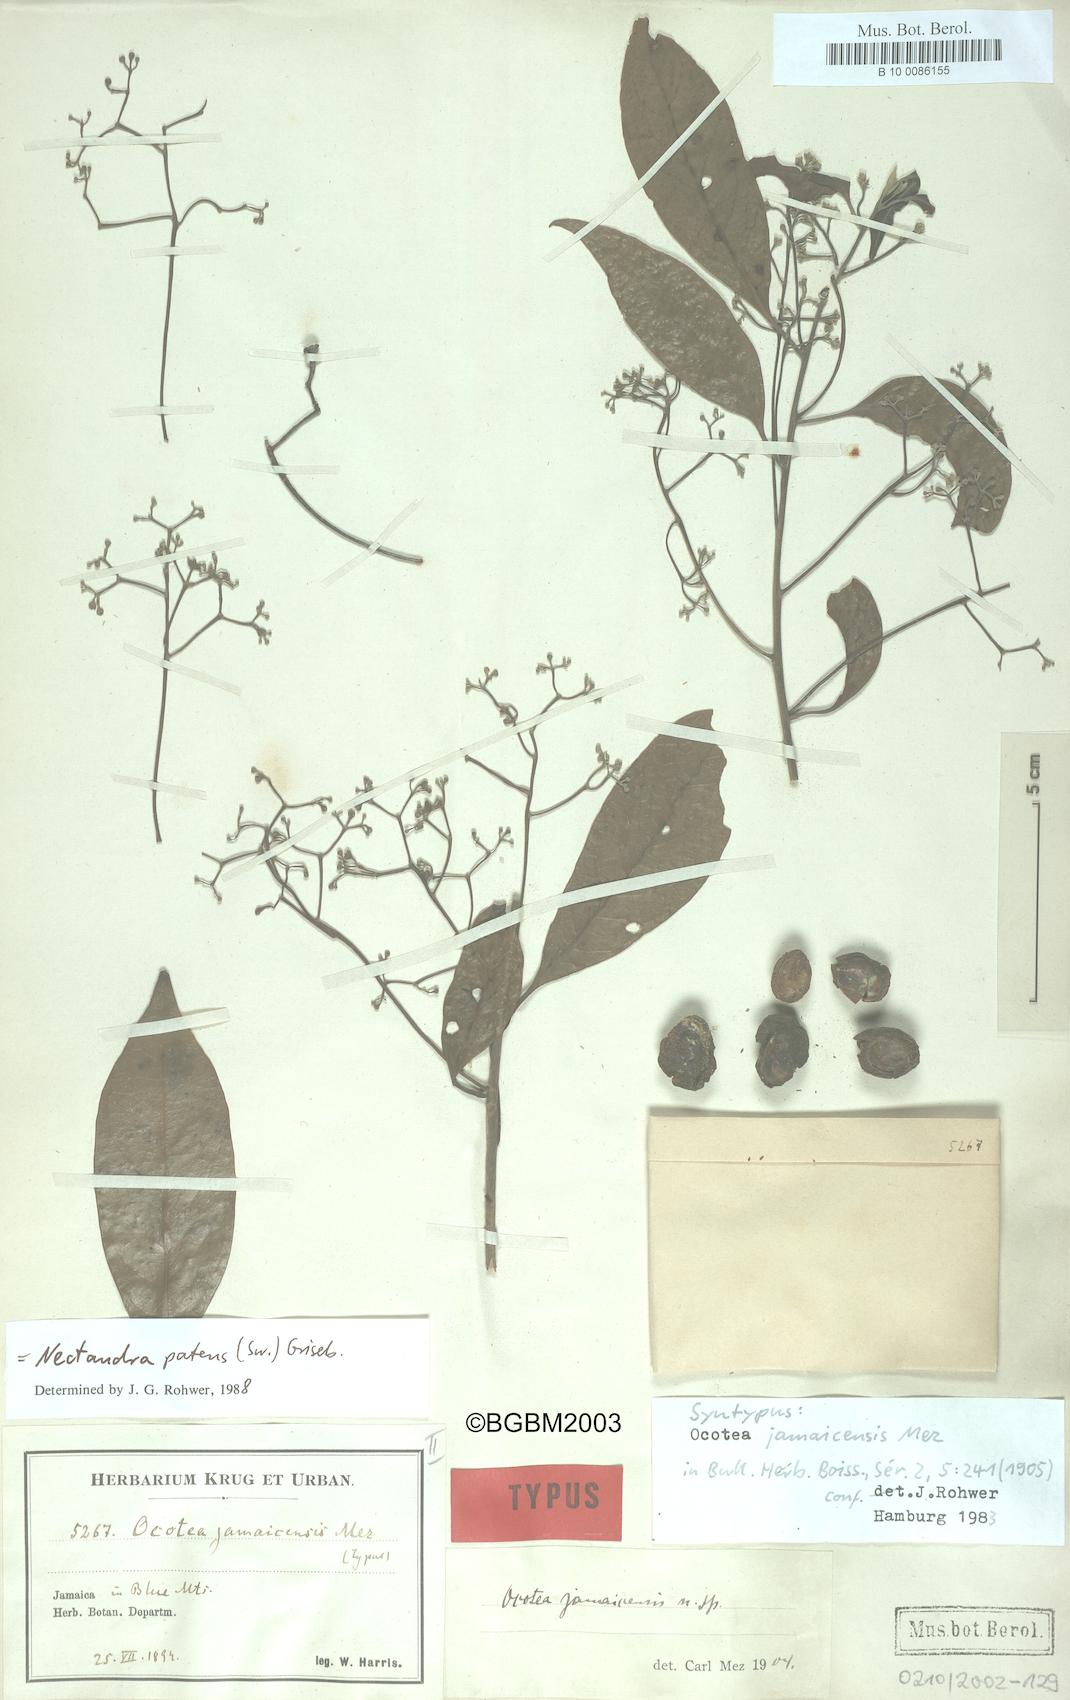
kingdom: Plantae
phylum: Tracheophyta
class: Magnoliopsida
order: Laurales
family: Lauraceae
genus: Damburneya
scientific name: Damburneya patens
